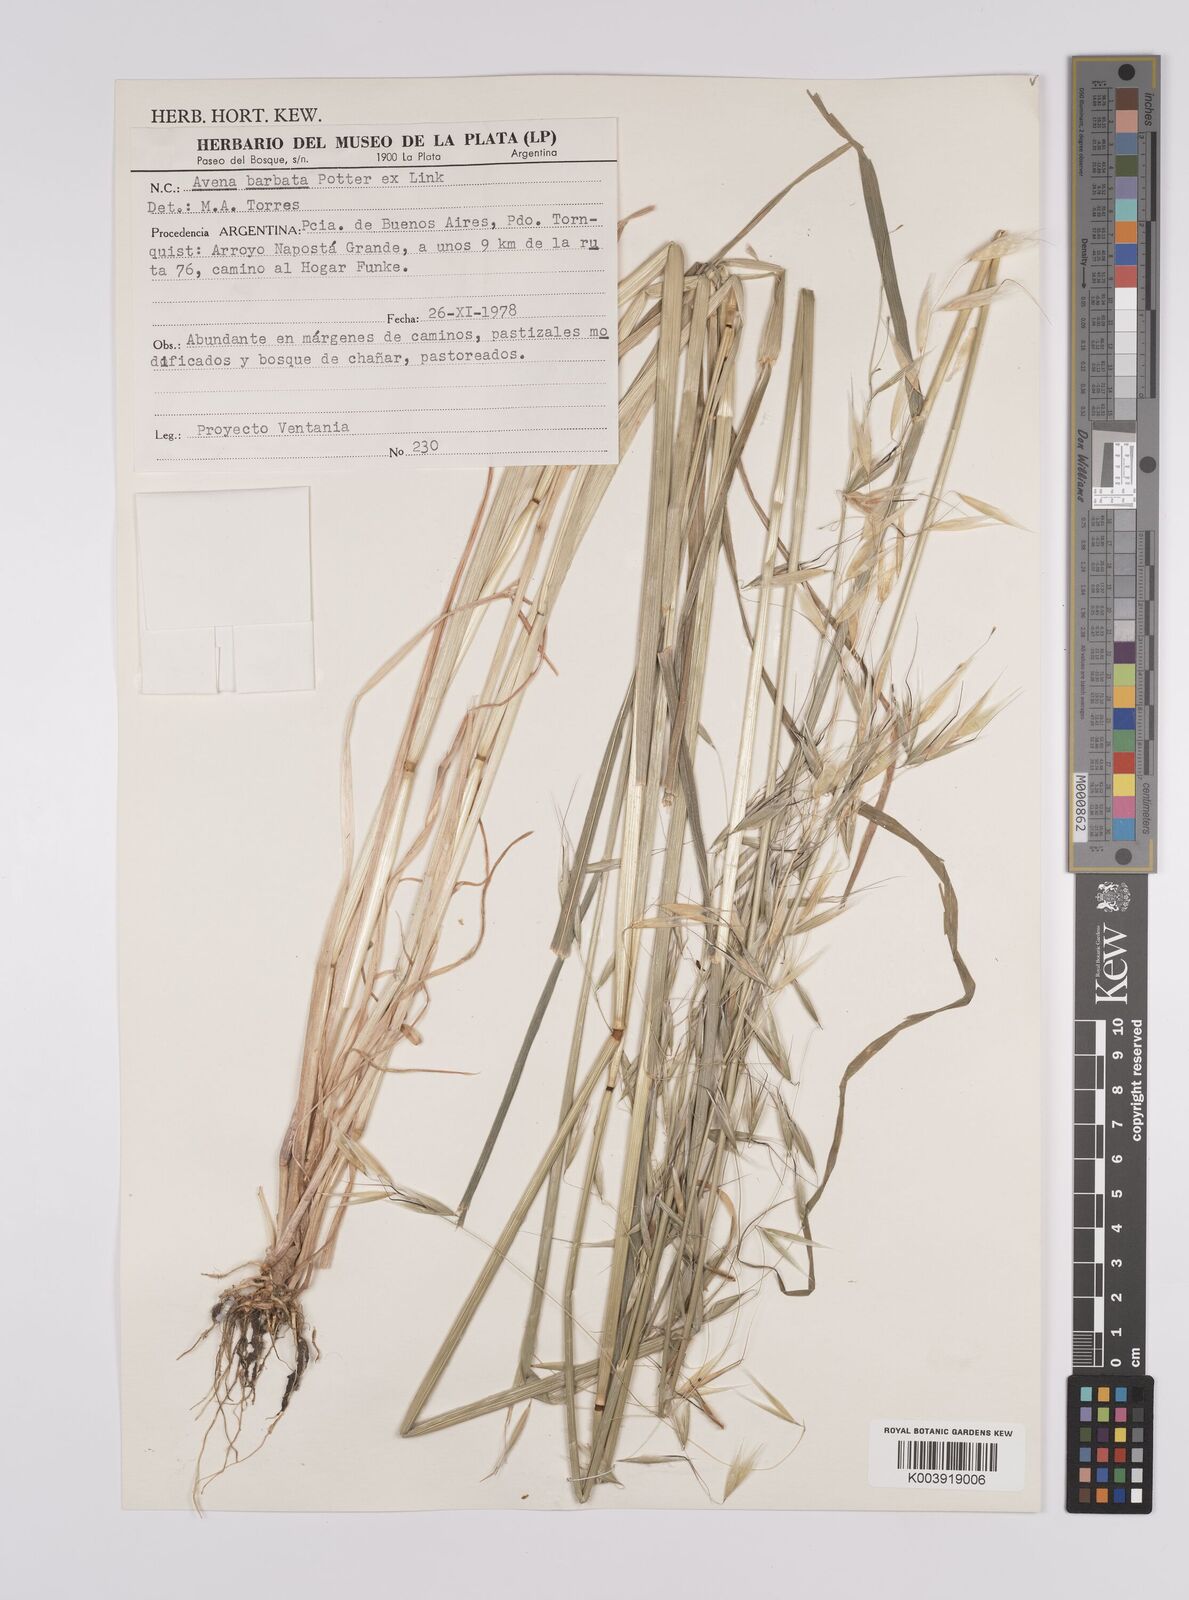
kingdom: Plantae
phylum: Tracheophyta
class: Liliopsida
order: Poales
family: Poaceae
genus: Avena
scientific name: Avena
